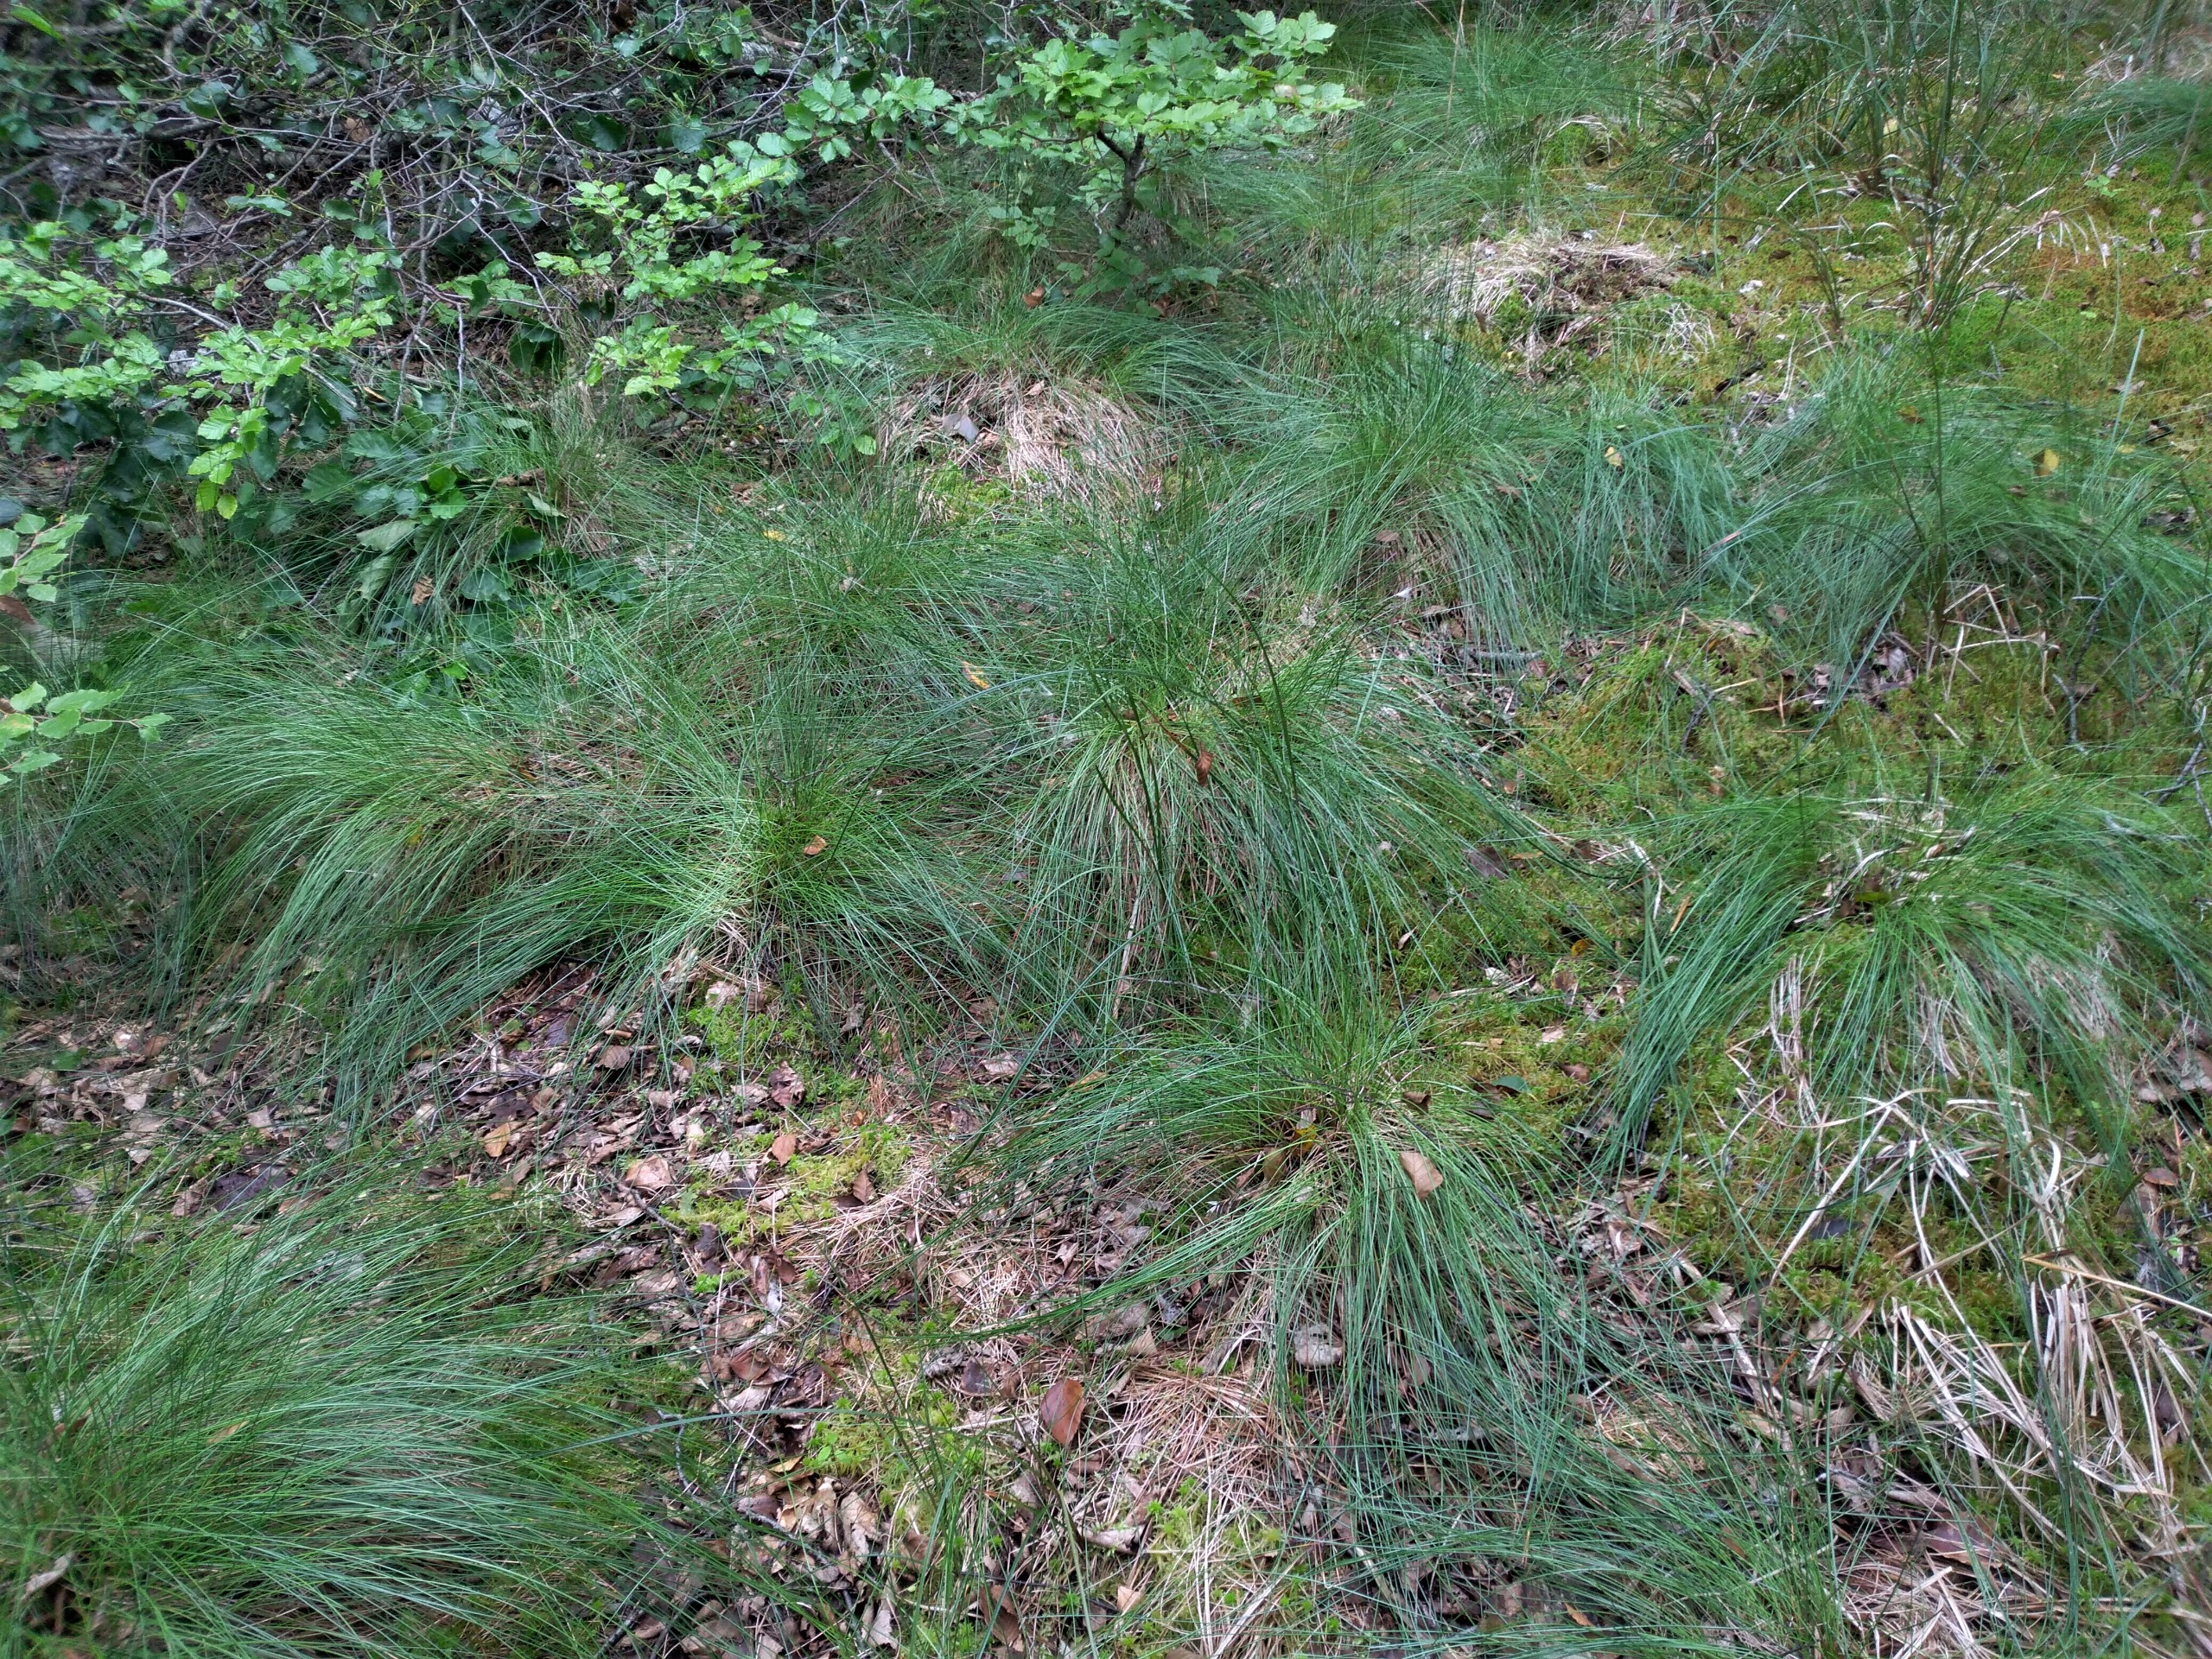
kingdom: Plantae
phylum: Tracheophyta
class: Liliopsida
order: Poales
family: Cyperaceae
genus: Eriophorum
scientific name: Eriophorum vaginatum
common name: Tue-kæruld
